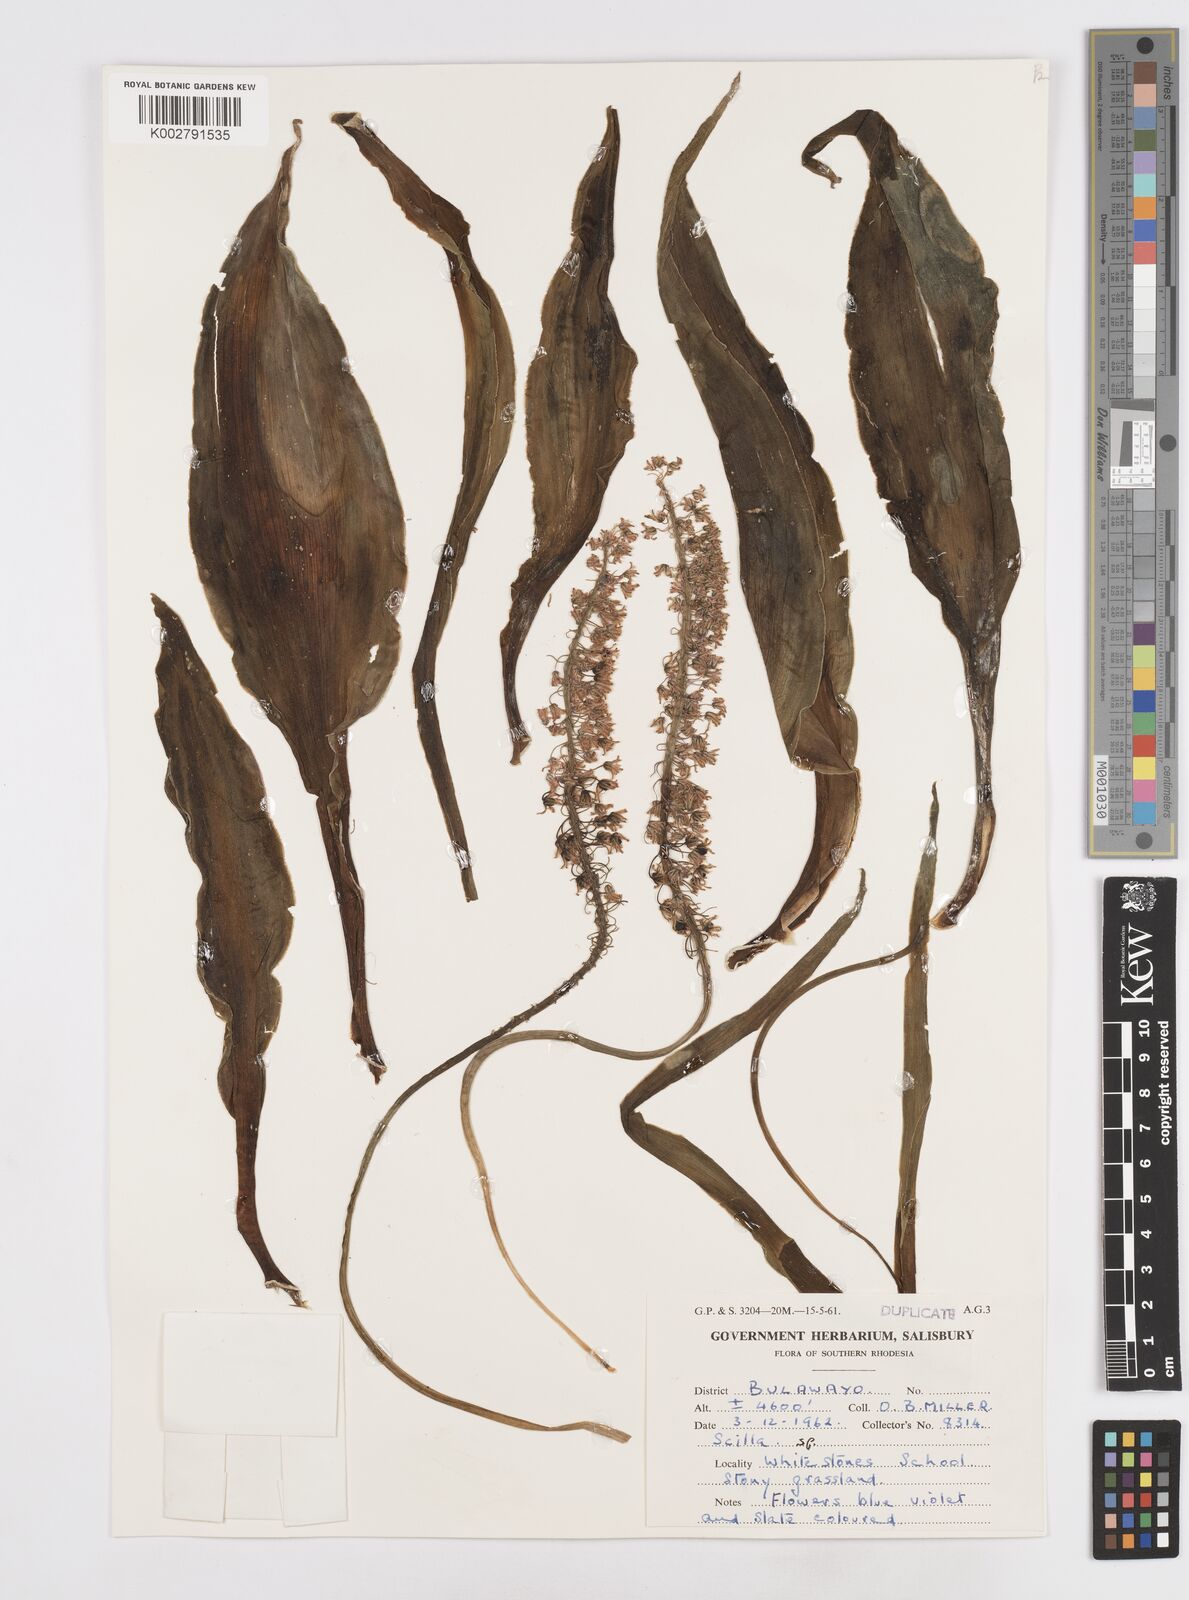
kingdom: Plantae
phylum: Tracheophyta
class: Liliopsida
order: Asparagales
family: Asparagaceae
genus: Scilla
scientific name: Scilla
